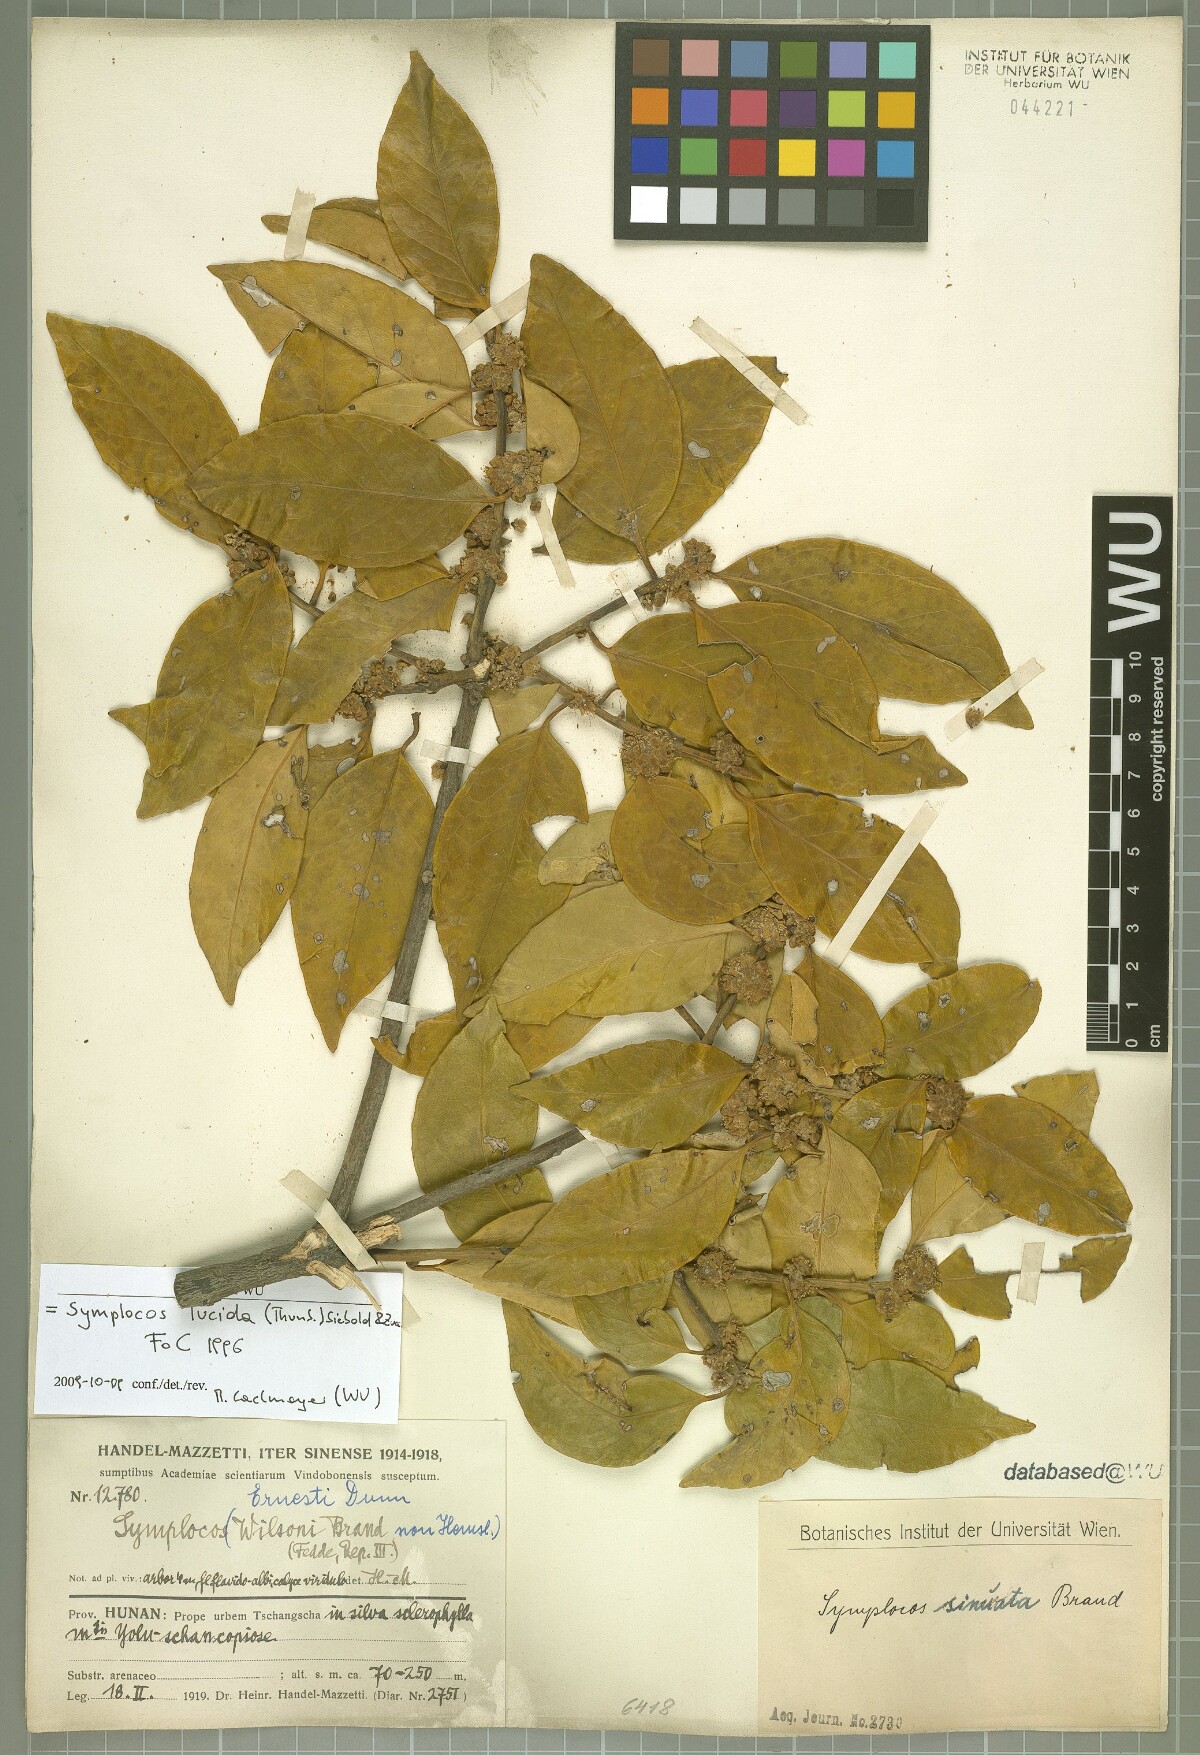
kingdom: Plantae
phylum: Tracheophyta
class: Magnoliopsida
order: Ericales
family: Symplocaceae
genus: Symplocos
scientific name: Symplocos nakaharae
